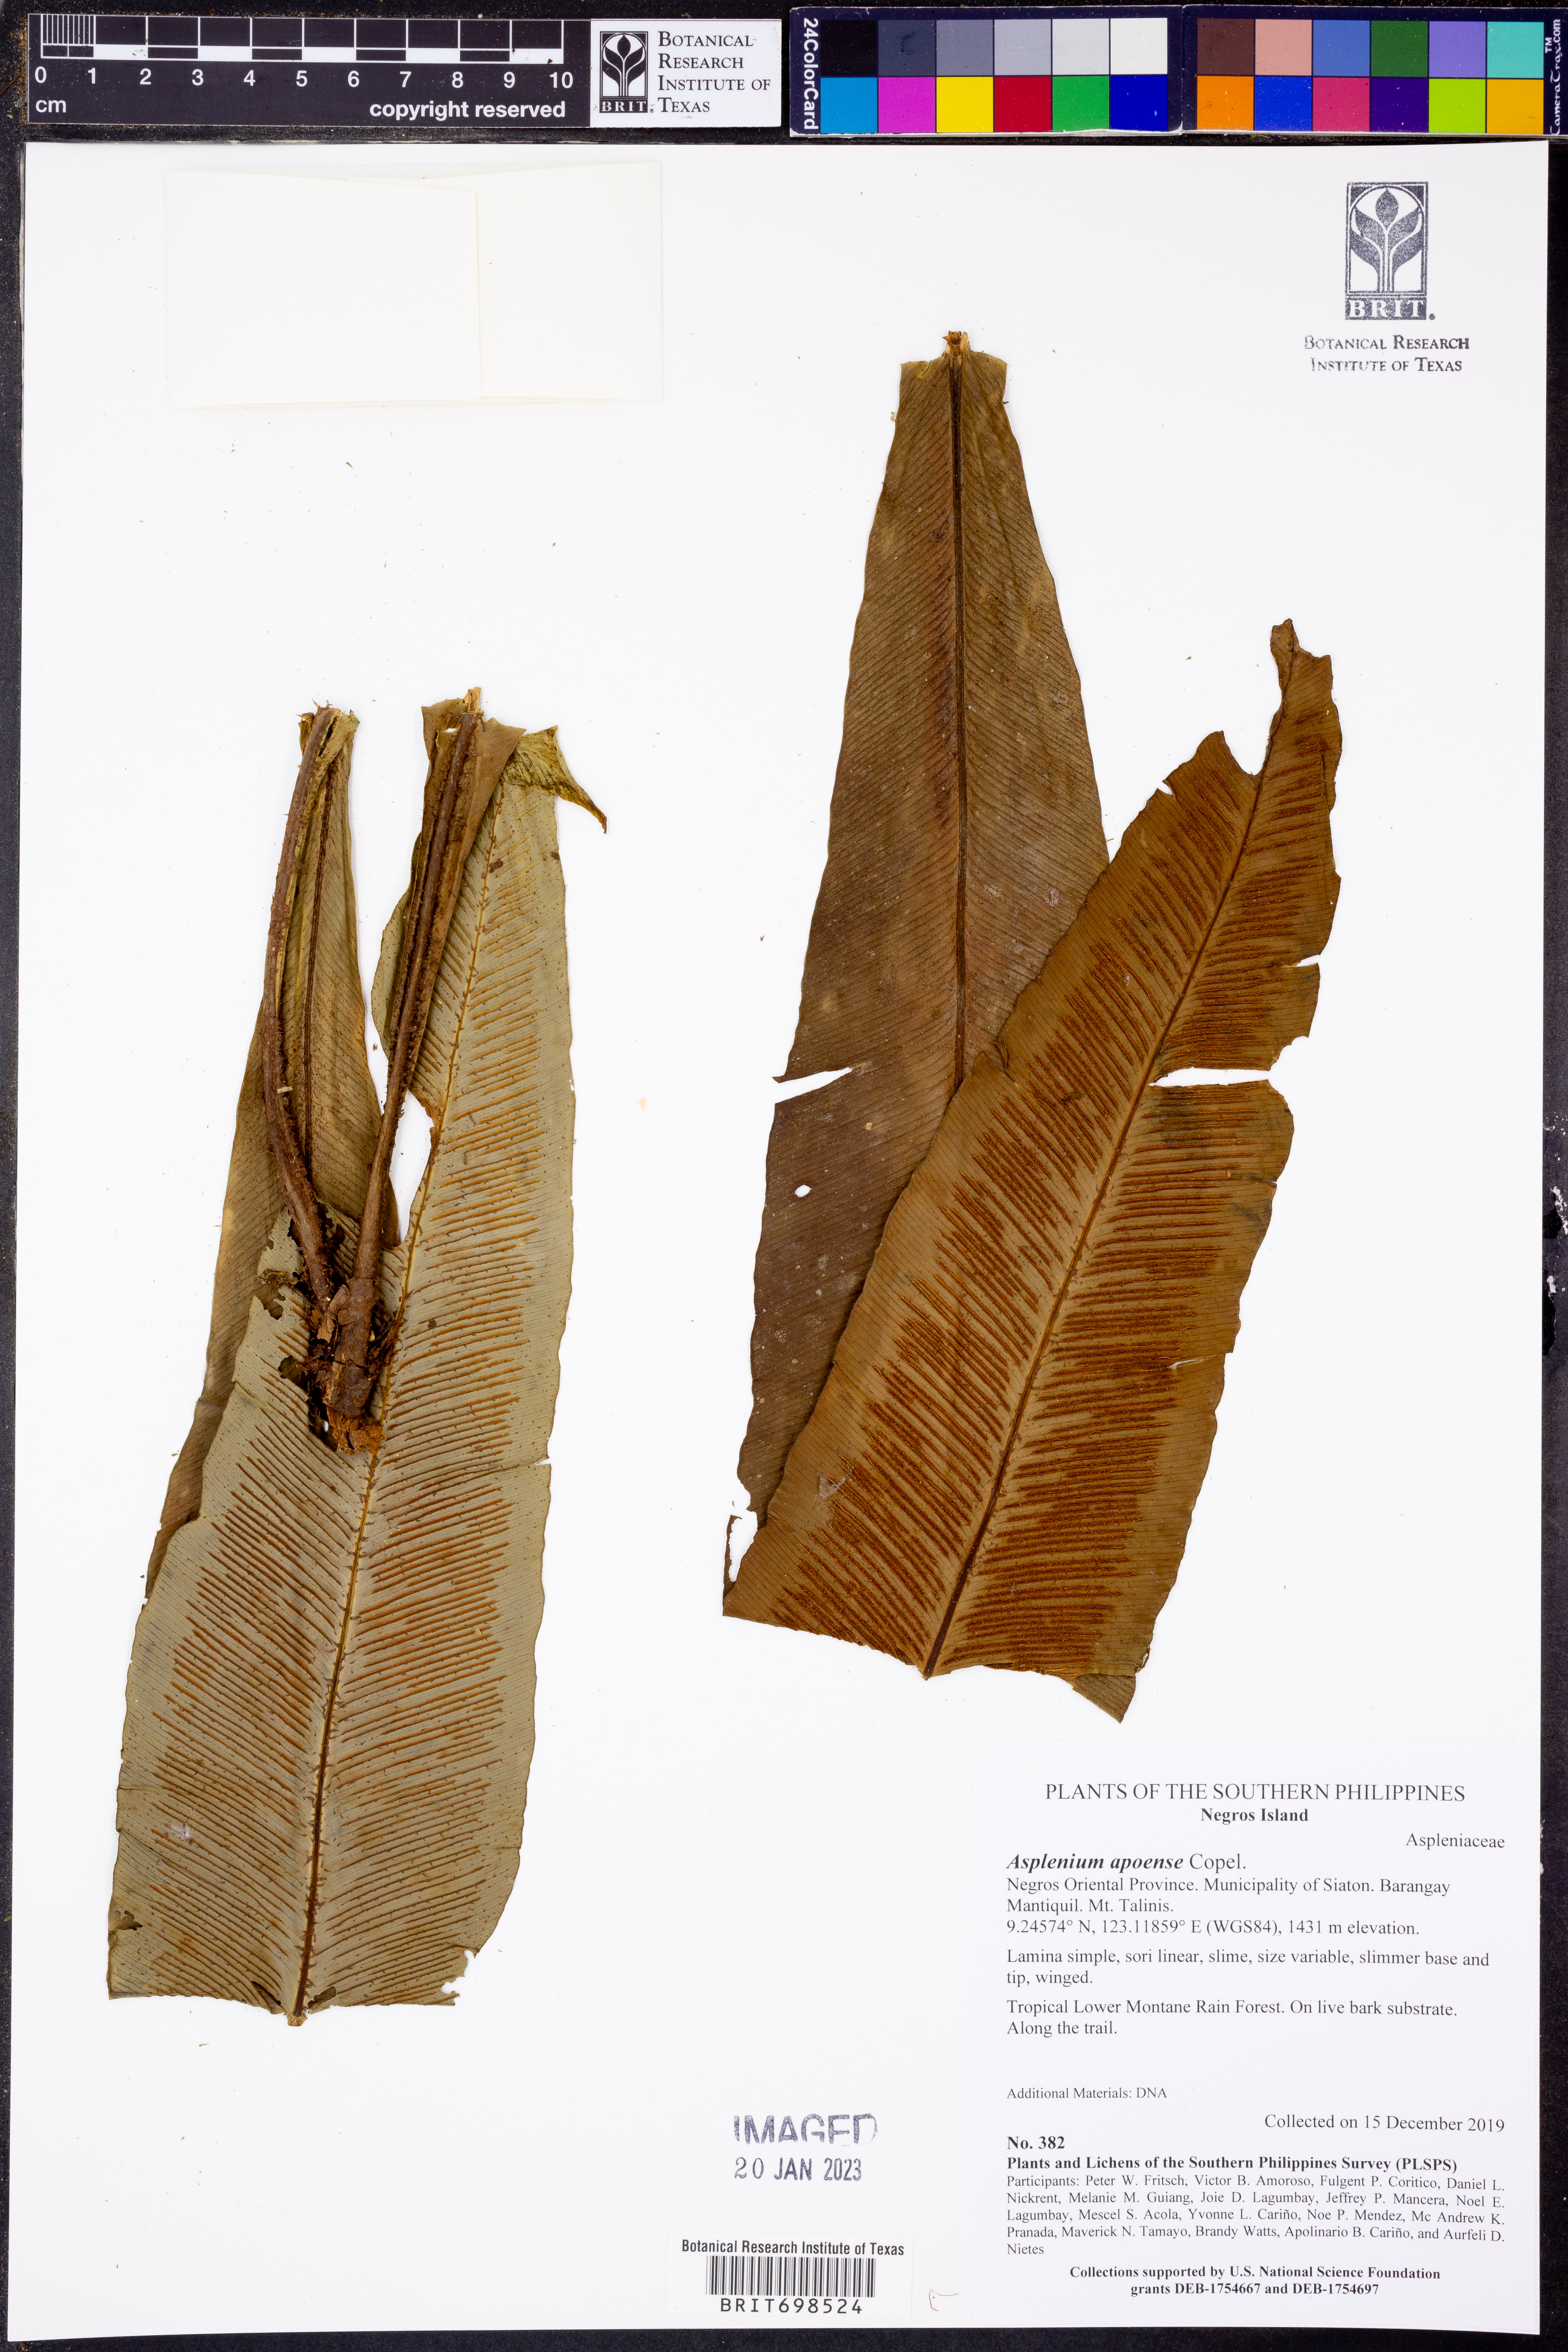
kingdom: Plantae
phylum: Tracheophyta
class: Polypodiopsida
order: Polypodiales
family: Aspleniaceae
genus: Asplenium
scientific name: Asplenium apoense
